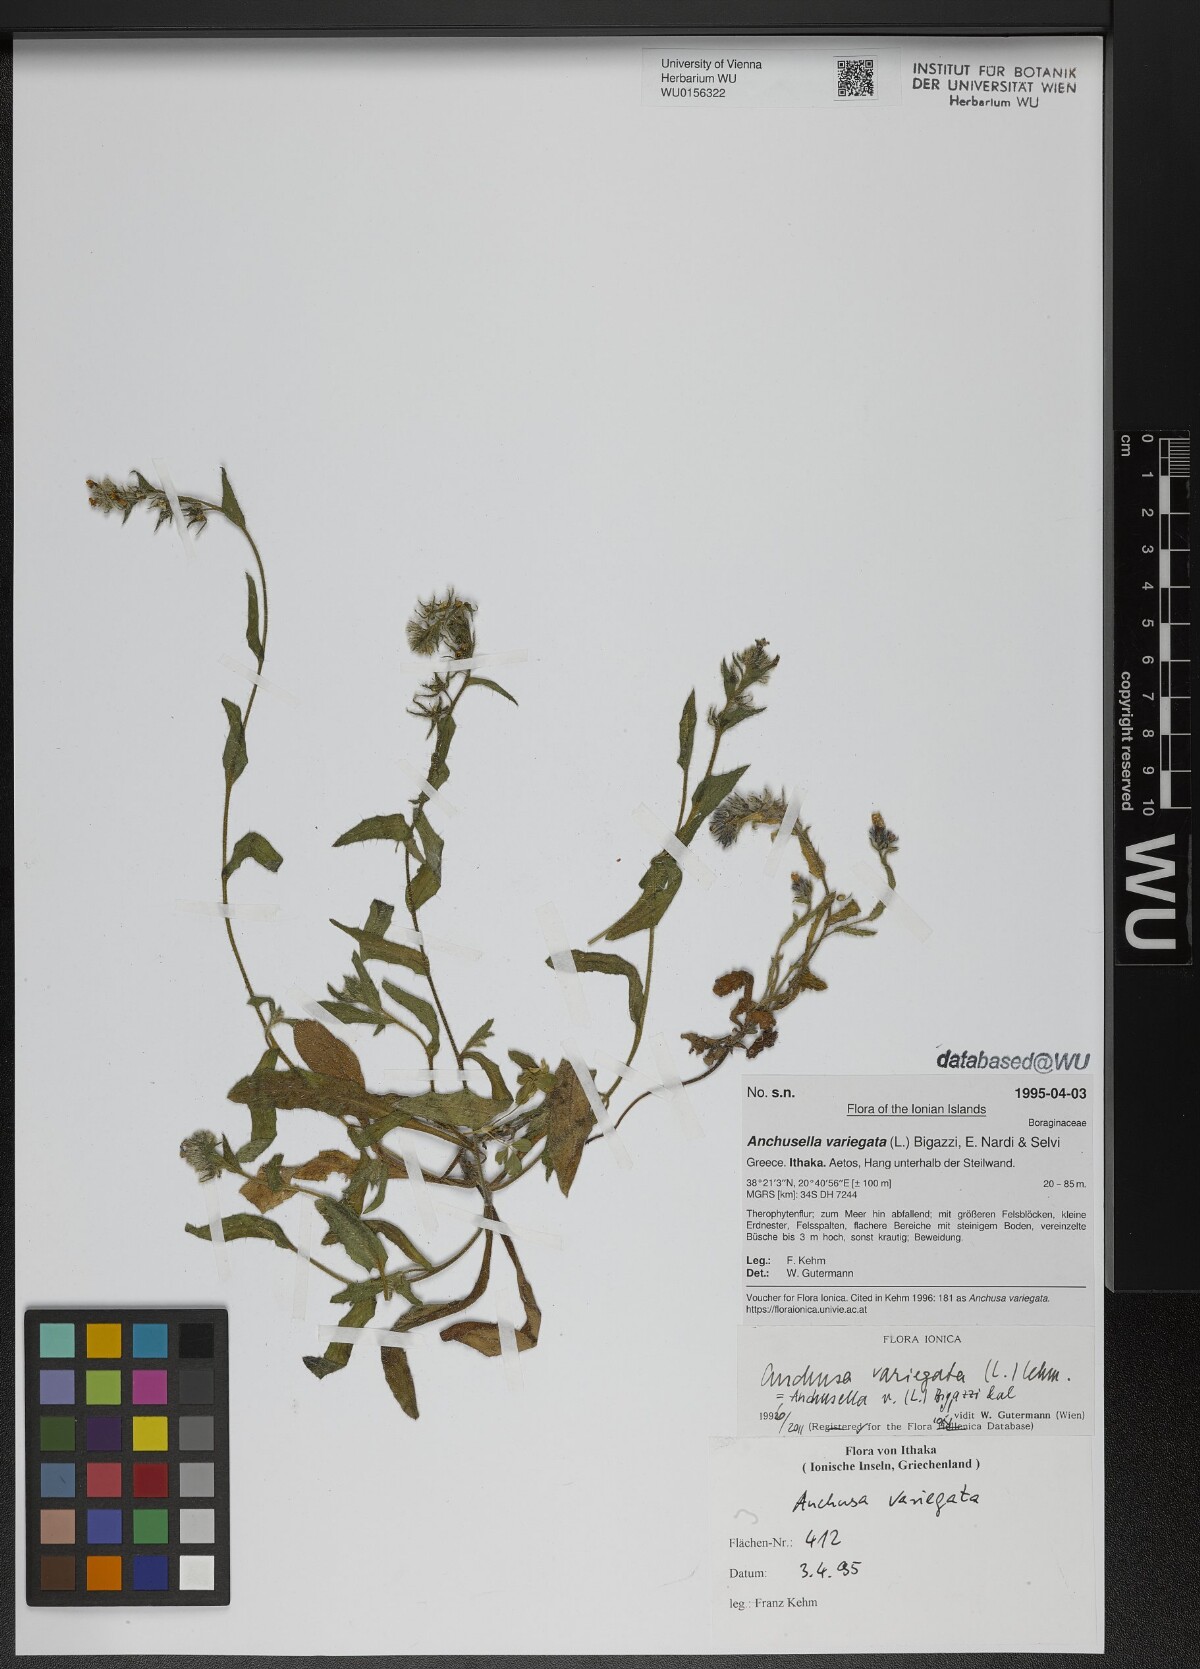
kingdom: Plantae
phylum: Tracheophyta
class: Magnoliopsida
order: Boraginales
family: Boraginaceae
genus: Anchusella
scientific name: Anchusella variegata
